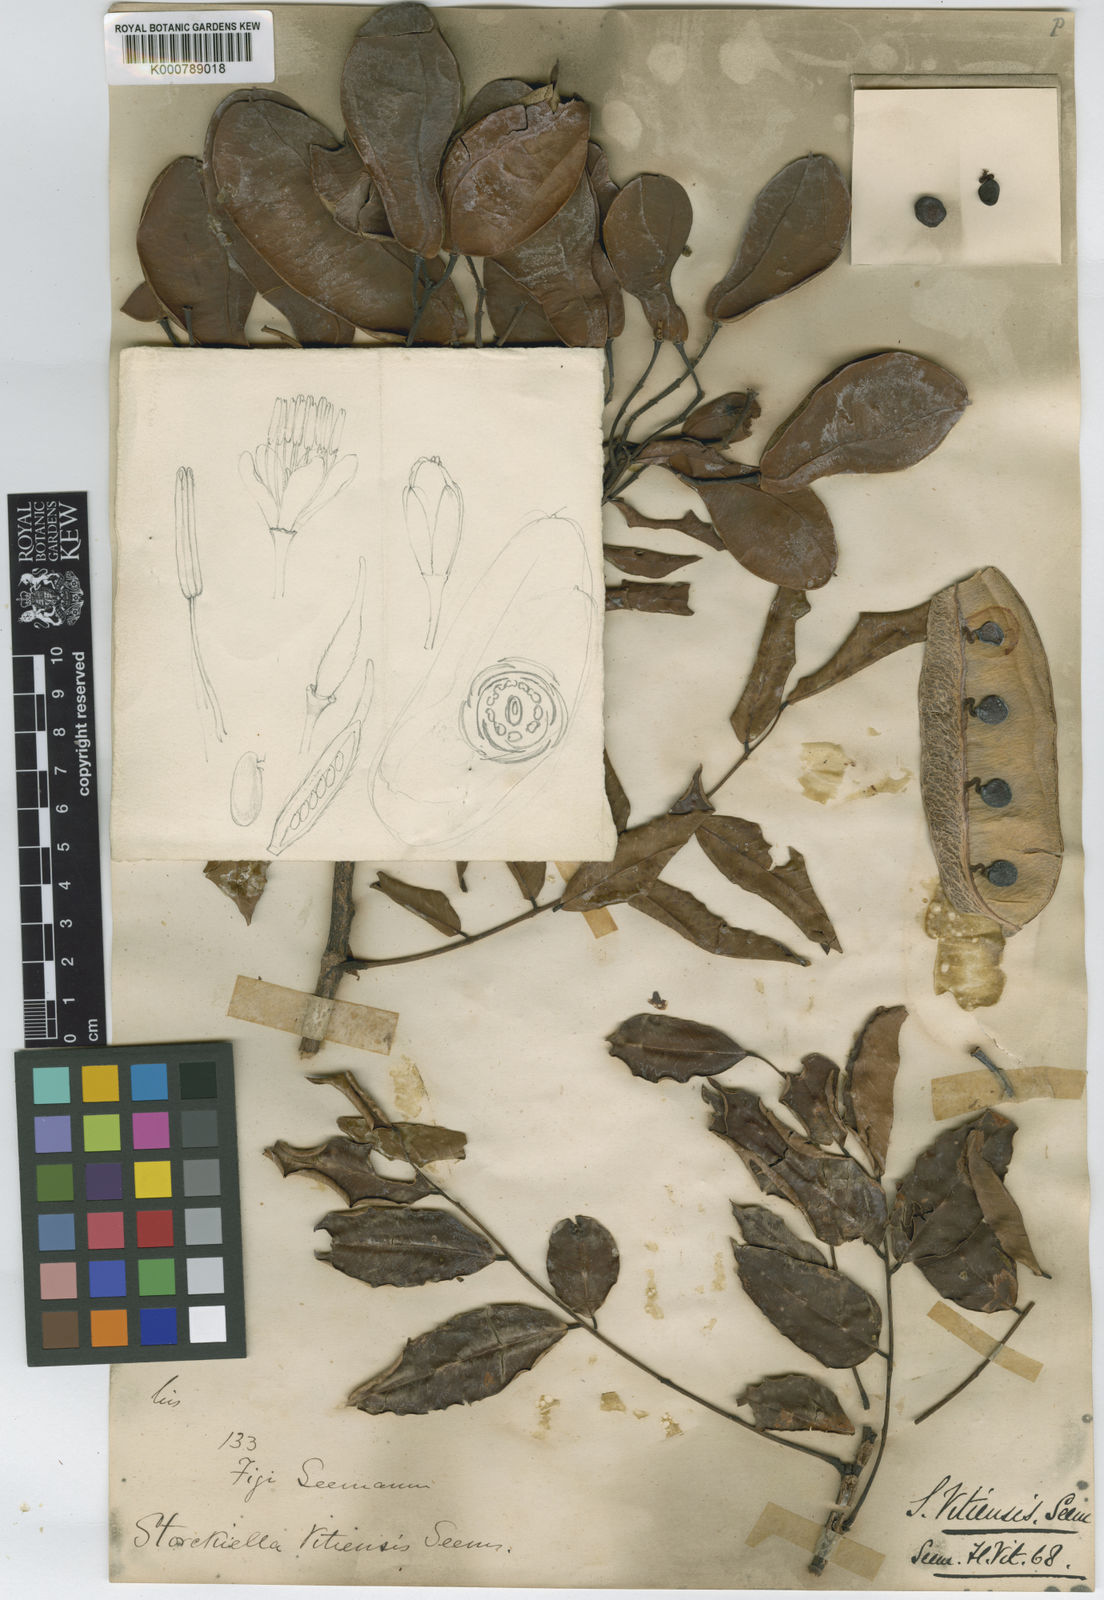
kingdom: Plantae
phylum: Tracheophyta
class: Magnoliopsida
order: Fabales
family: Fabaceae
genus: Storckiella
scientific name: Storckiella vitiensis
